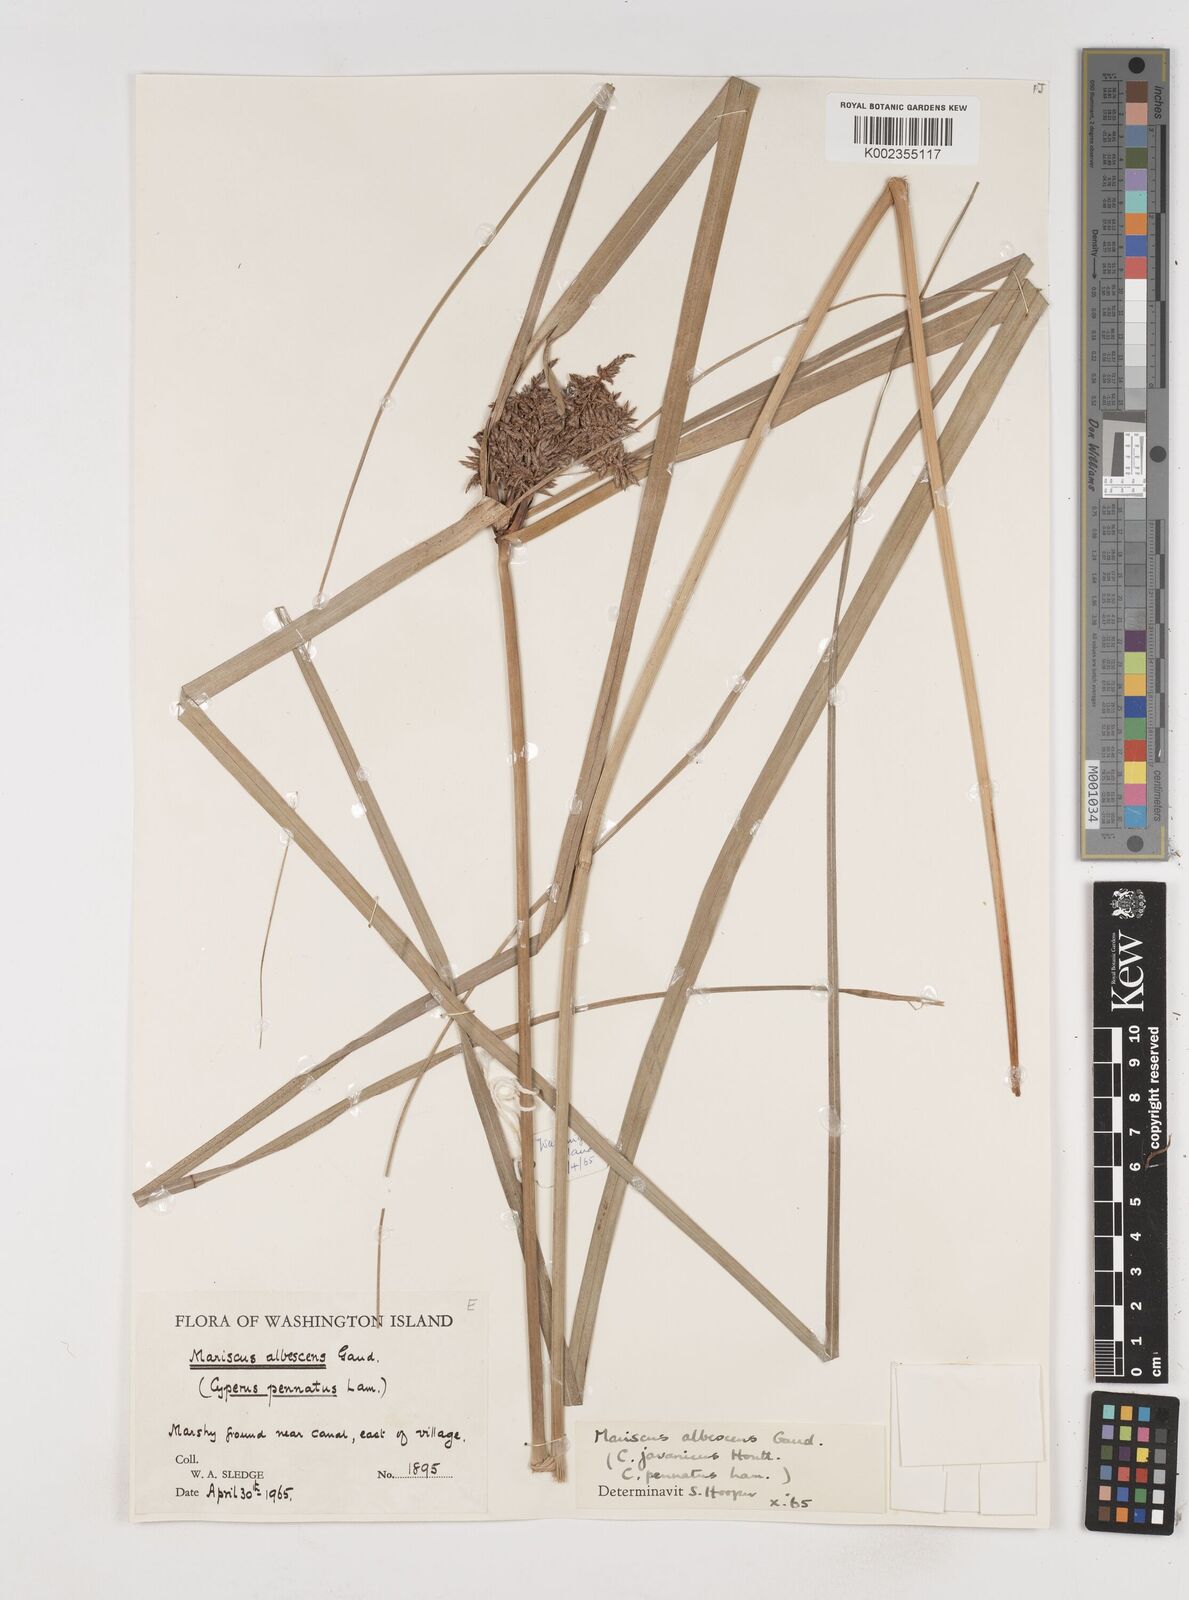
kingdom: Plantae
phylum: Tracheophyta
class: Liliopsida
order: Poales
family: Cyperaceae
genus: Cyperus
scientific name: Cyperus javanicus
